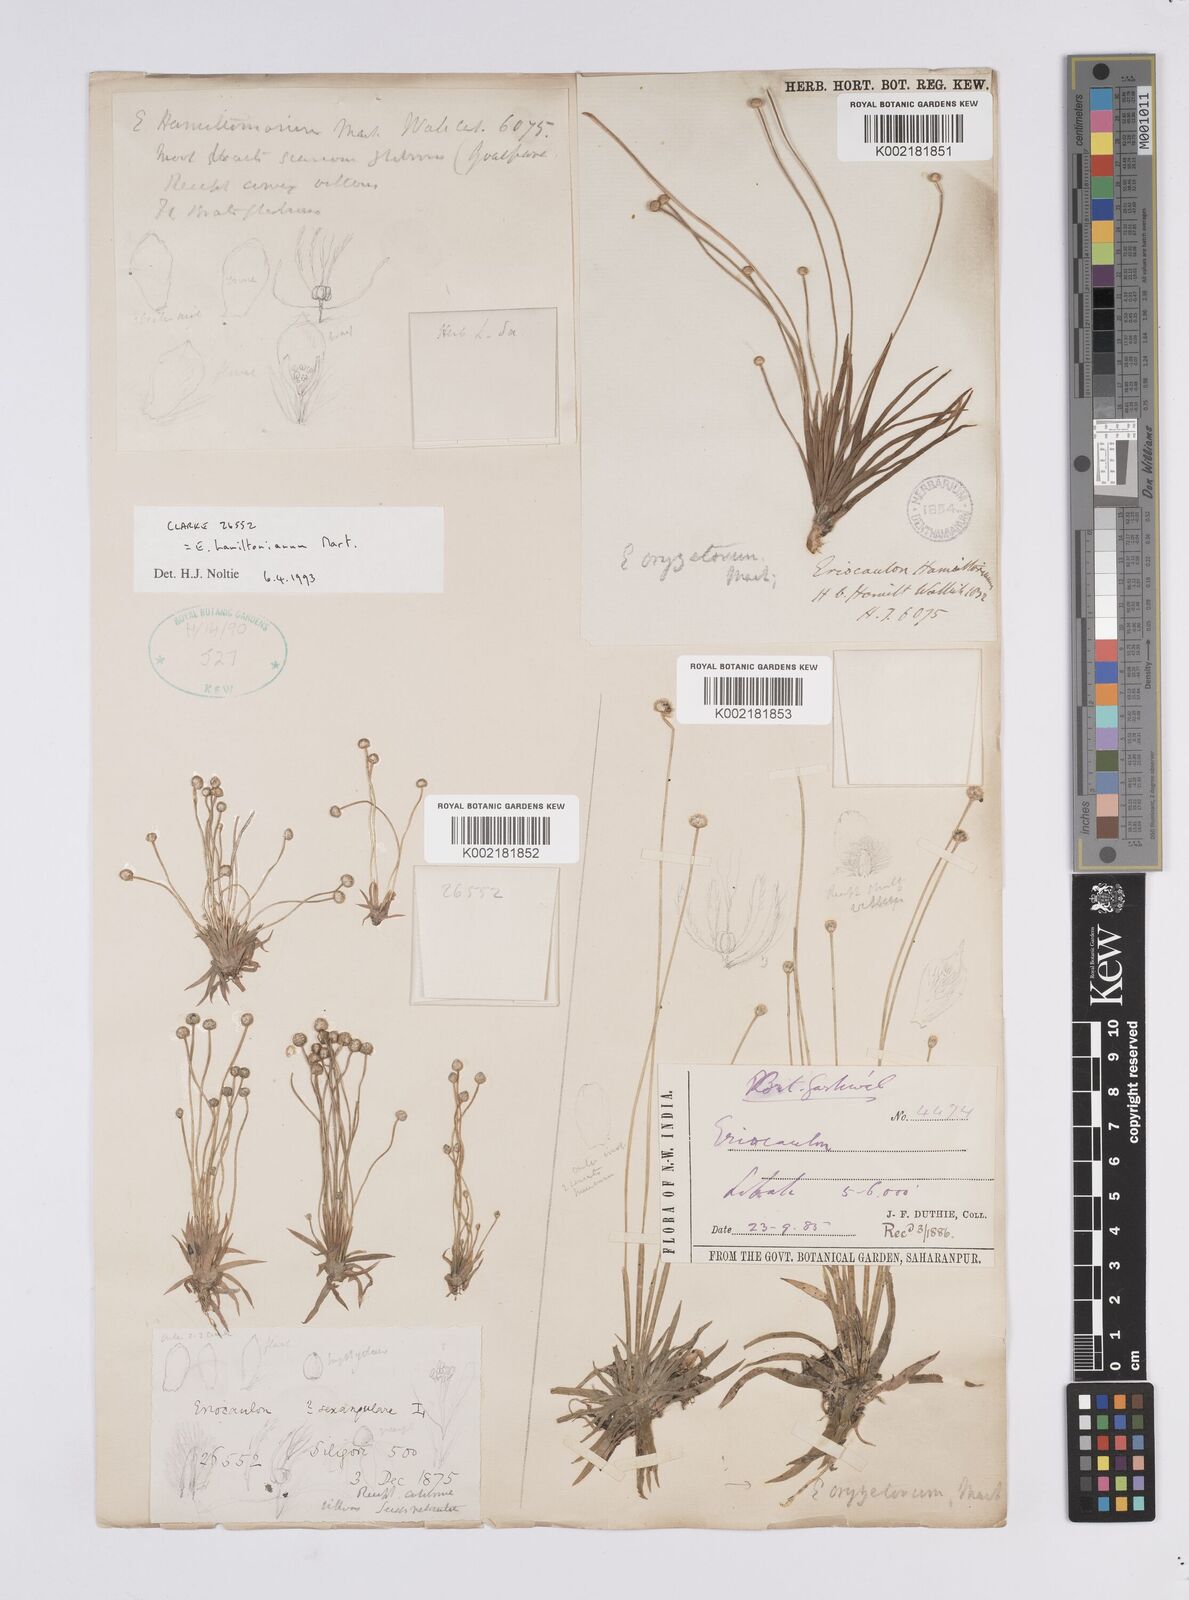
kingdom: Plantae
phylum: Tracheophyta
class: Liliopsida
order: Poales
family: Eriocaulaceae
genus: Eriocaulon
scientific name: Eriocaulon hamiltonianum
